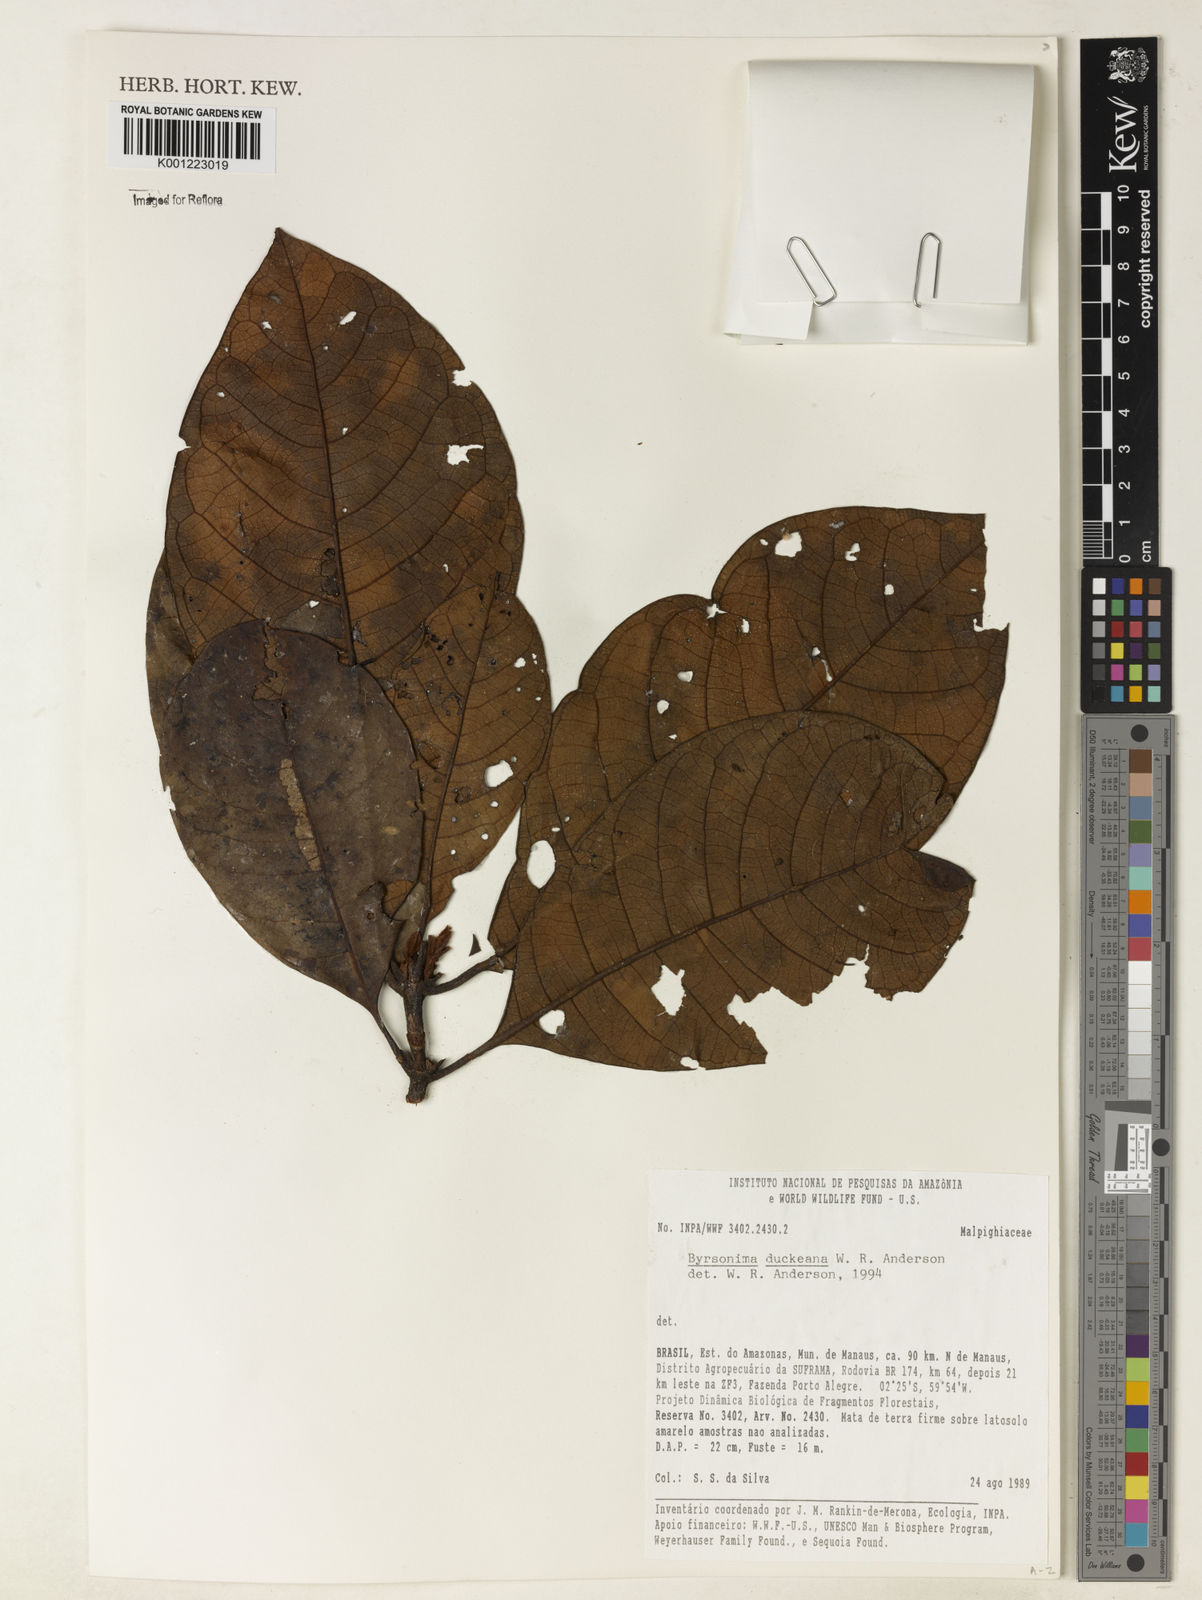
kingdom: Plantae
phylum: Tracheophyta
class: Magnoliopsida
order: Malpighiales
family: Malpighiaceae
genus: Byrsonima
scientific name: Byrsonima duckeana
